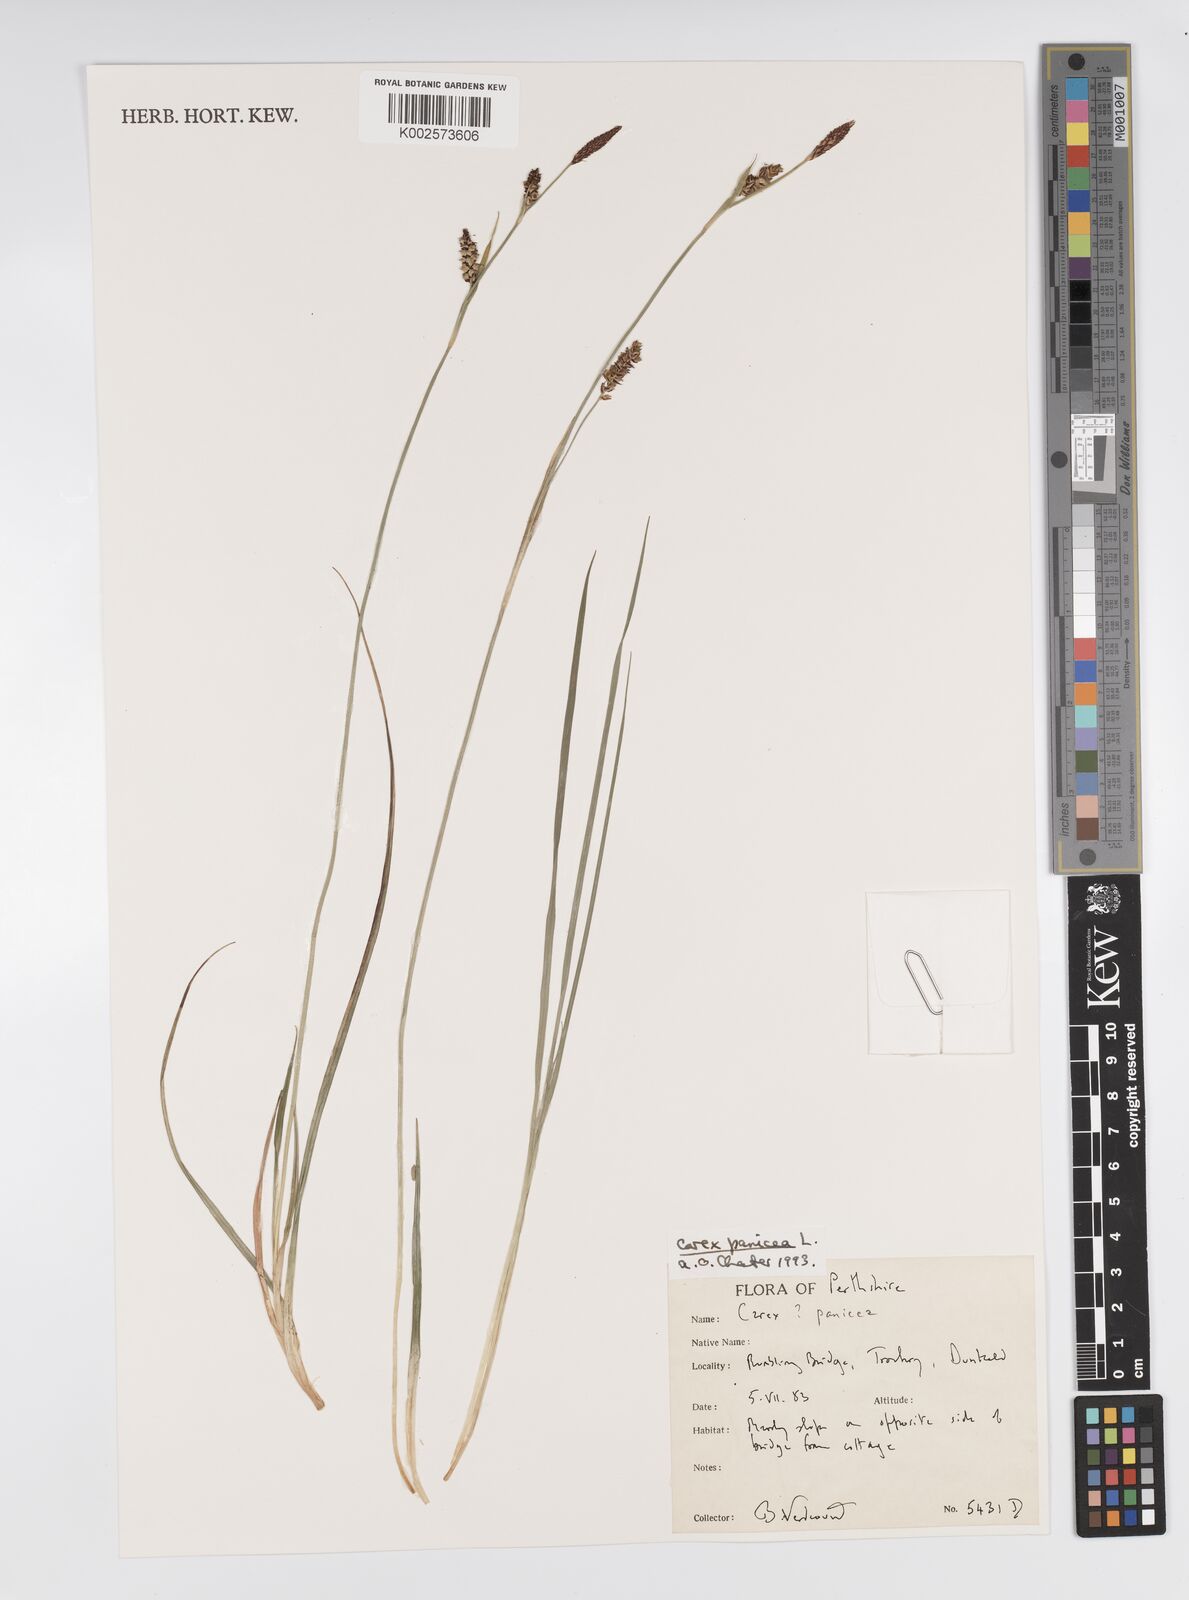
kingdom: Plantae
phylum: Tracheophyta
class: Liliopsida
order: Poales
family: Cyperaceae
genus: Carex
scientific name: Carex panicea
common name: Carnation sedge
